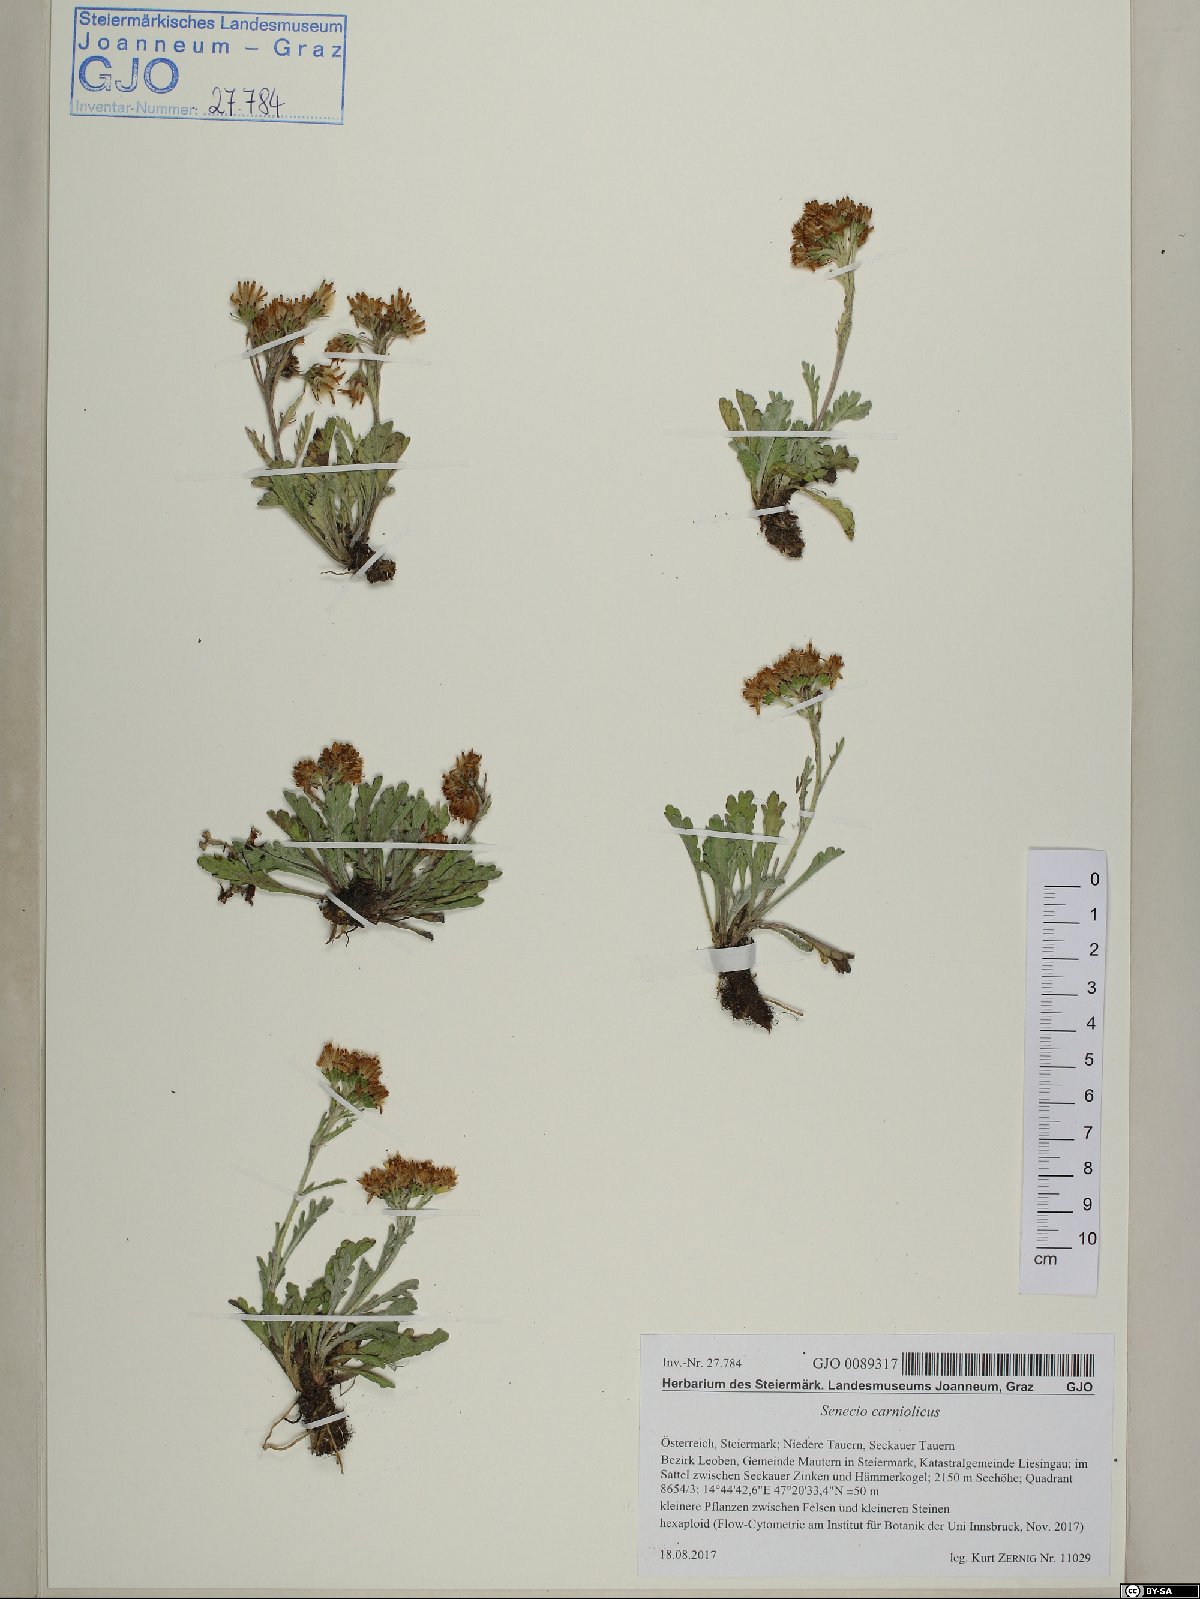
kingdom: Plantae
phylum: Tracheophyta
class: Magnoliopsida
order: Asterales
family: Asteraceae
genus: Jacobaea
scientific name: Jacobaea carniolica
